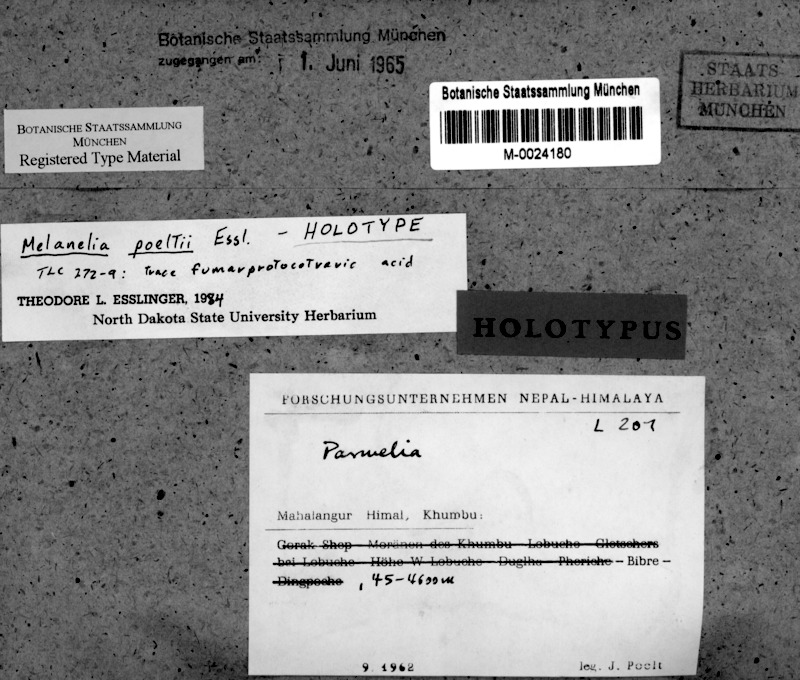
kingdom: Fungi
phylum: Ascomycota
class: Lecanoromycetes
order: Lecanorales
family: Parmeliaceae
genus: Melanohalea
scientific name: Melanohalea poeltii
